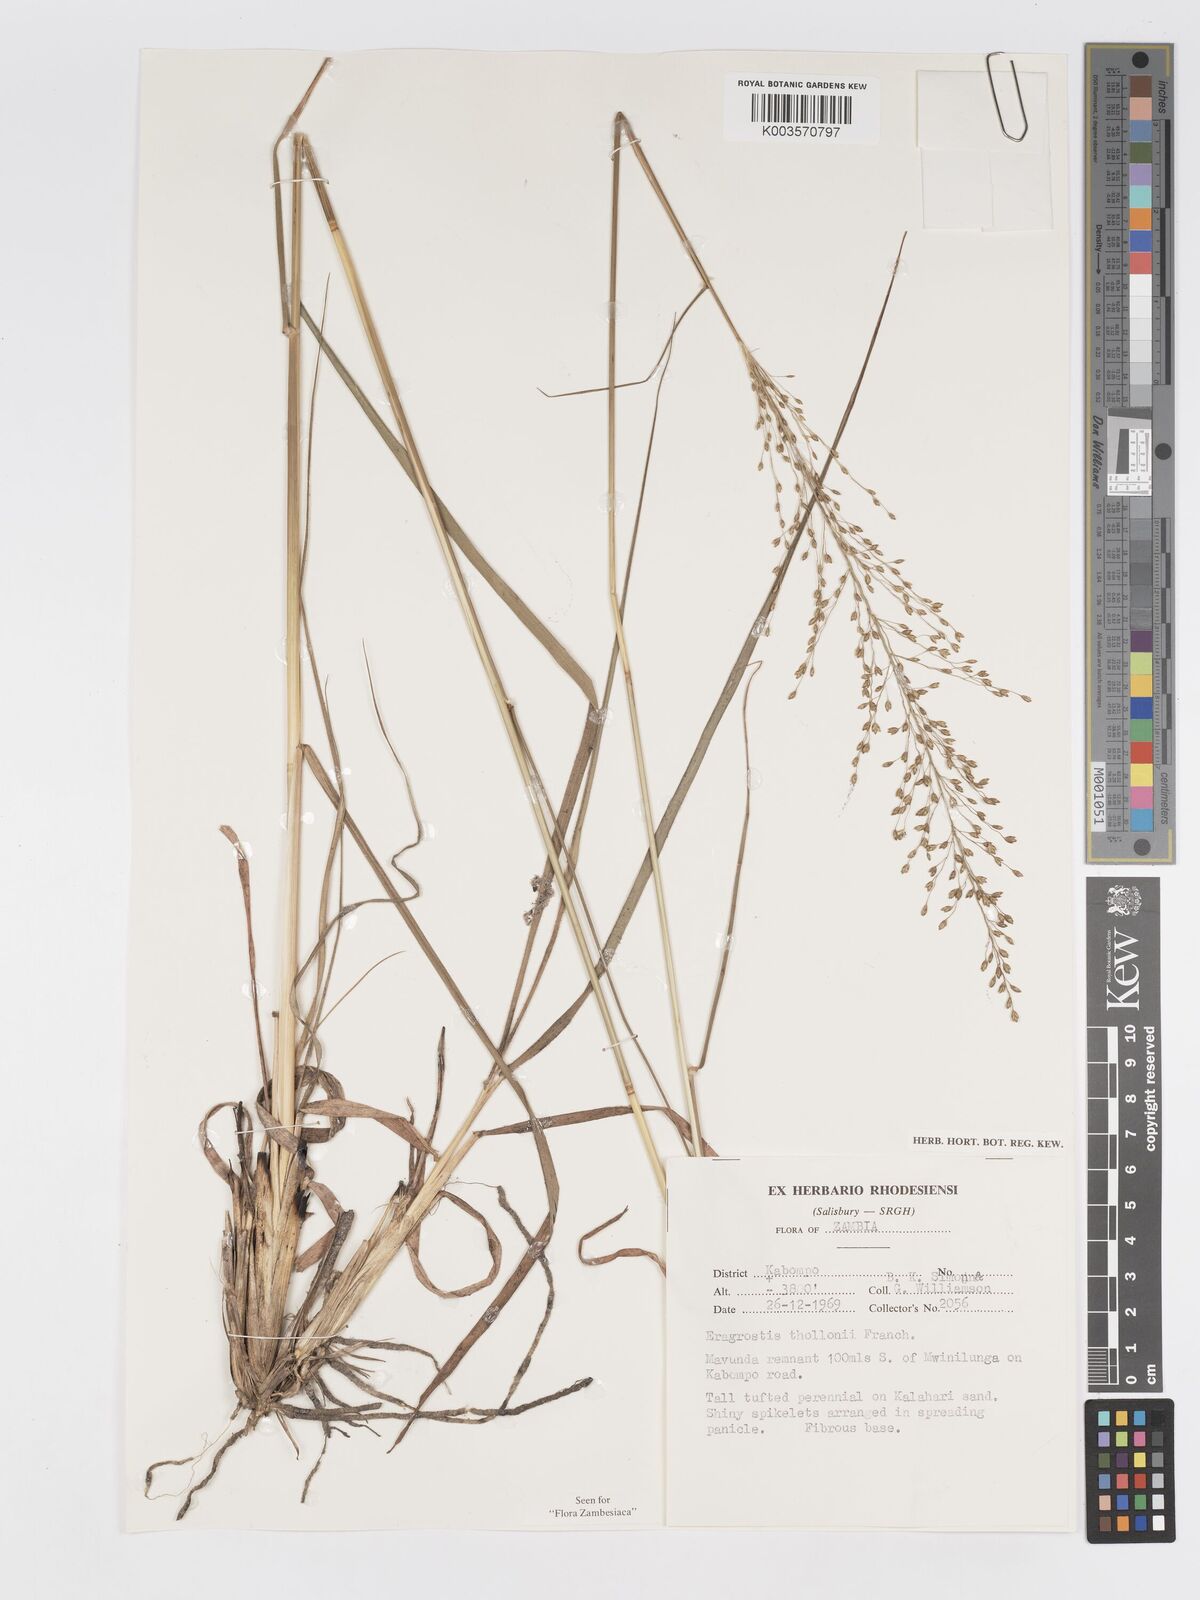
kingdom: Plantae
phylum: Tracheophyta
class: Liliopsida
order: Poales
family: Poaceae
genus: Eragrostis
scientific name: Eragrostis cimicina
